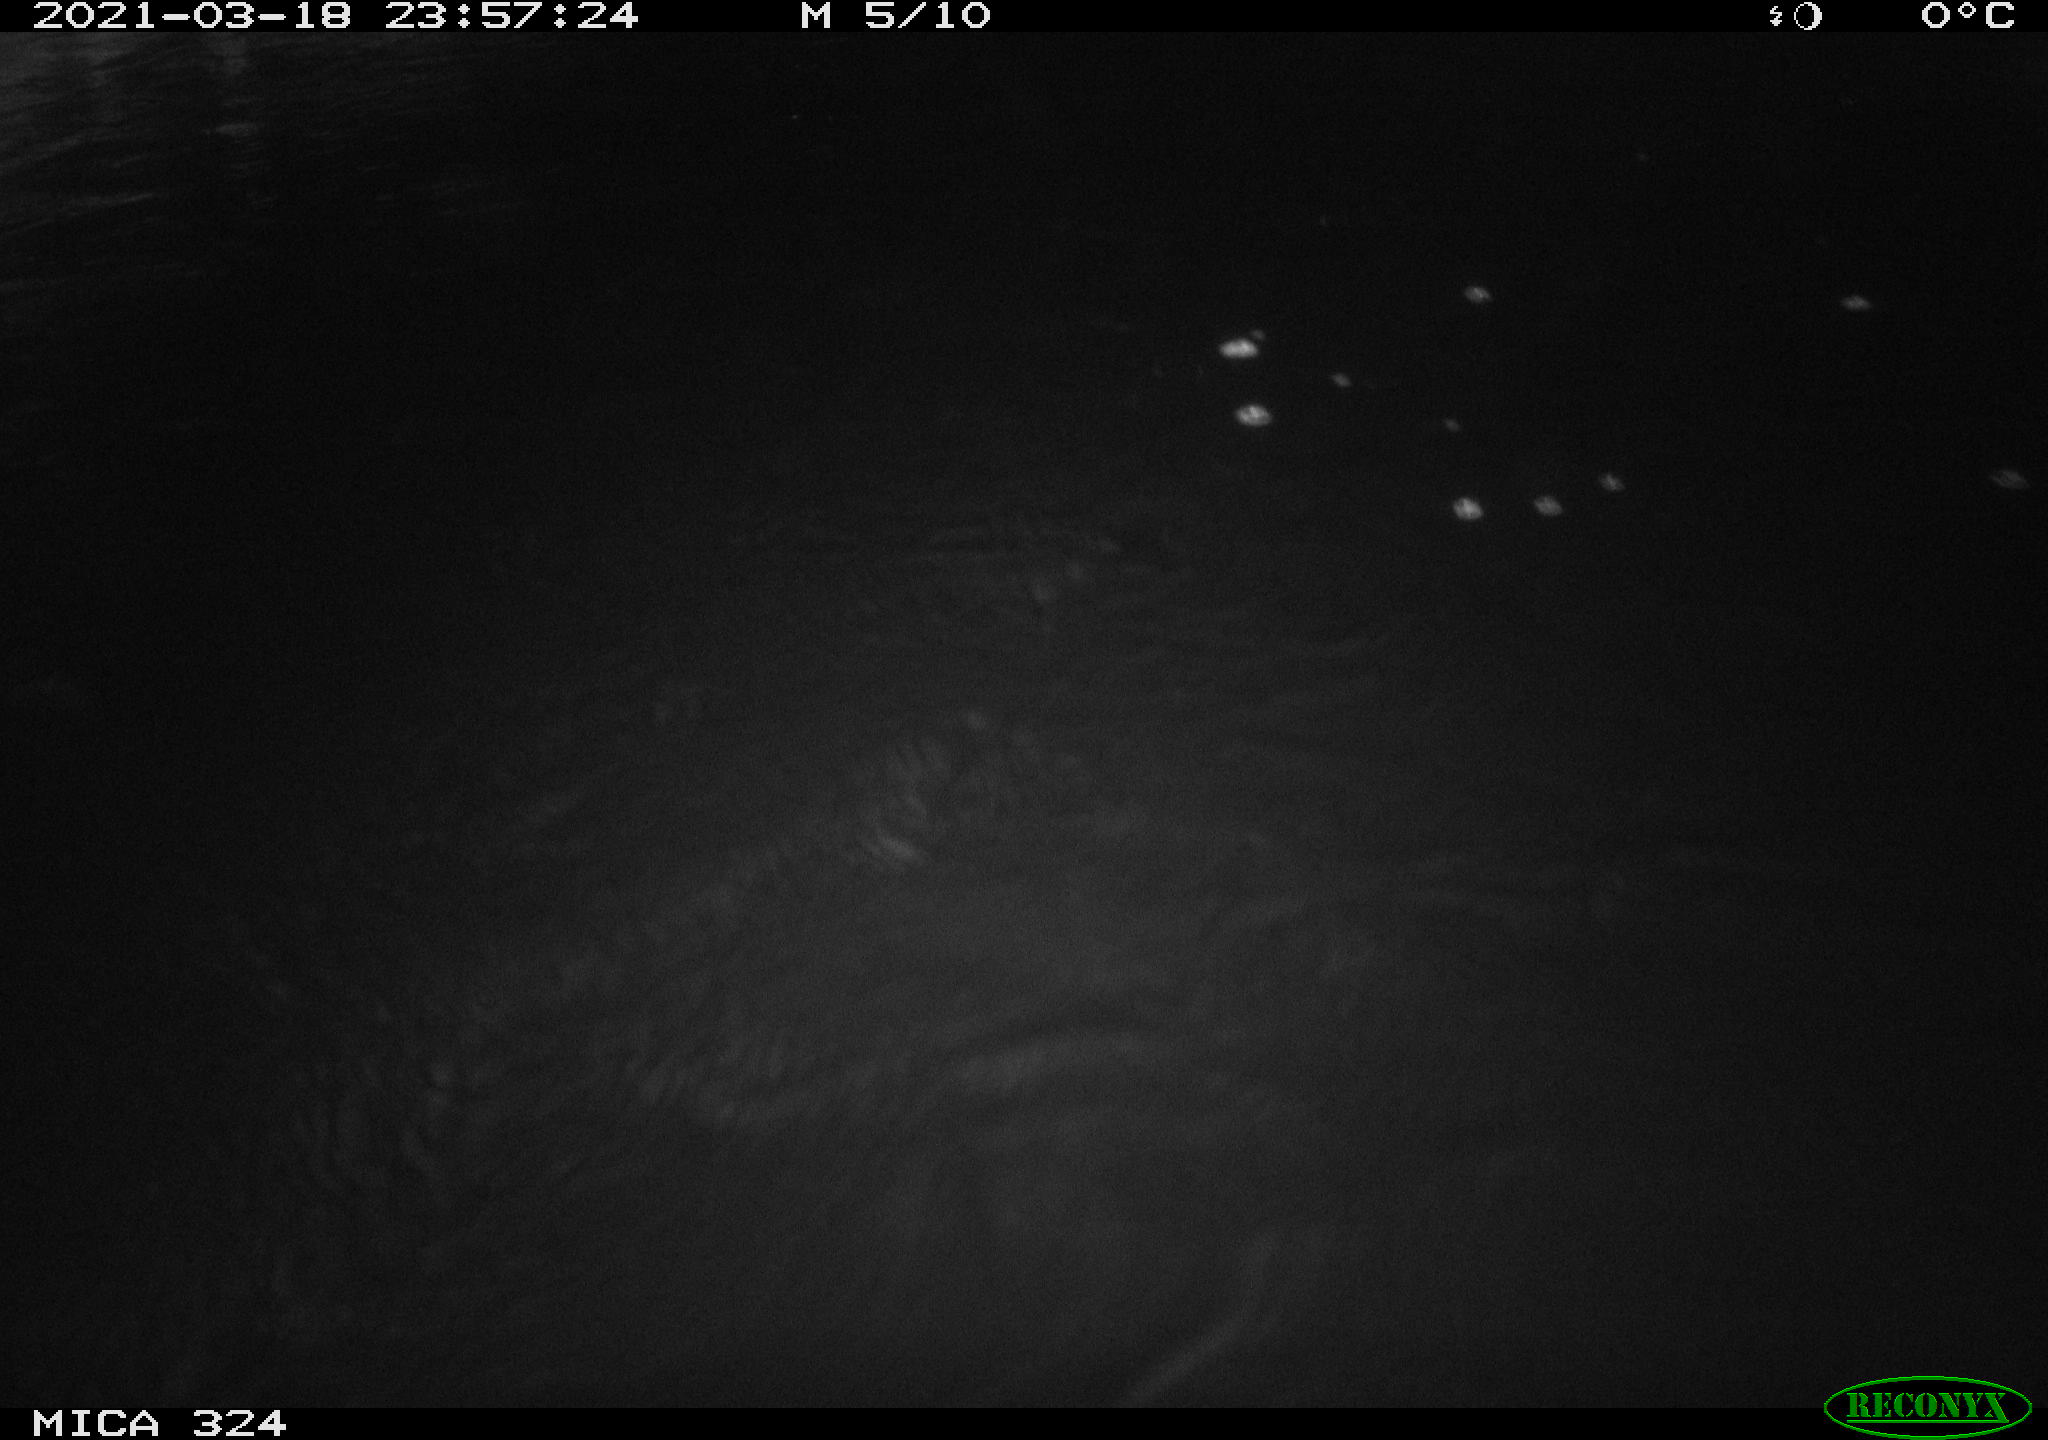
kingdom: Animalia
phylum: Chordata
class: Mammalia
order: Rodentia
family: Cricetidae
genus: Ondatra
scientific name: Ondatra zibethicus
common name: Muskrat
